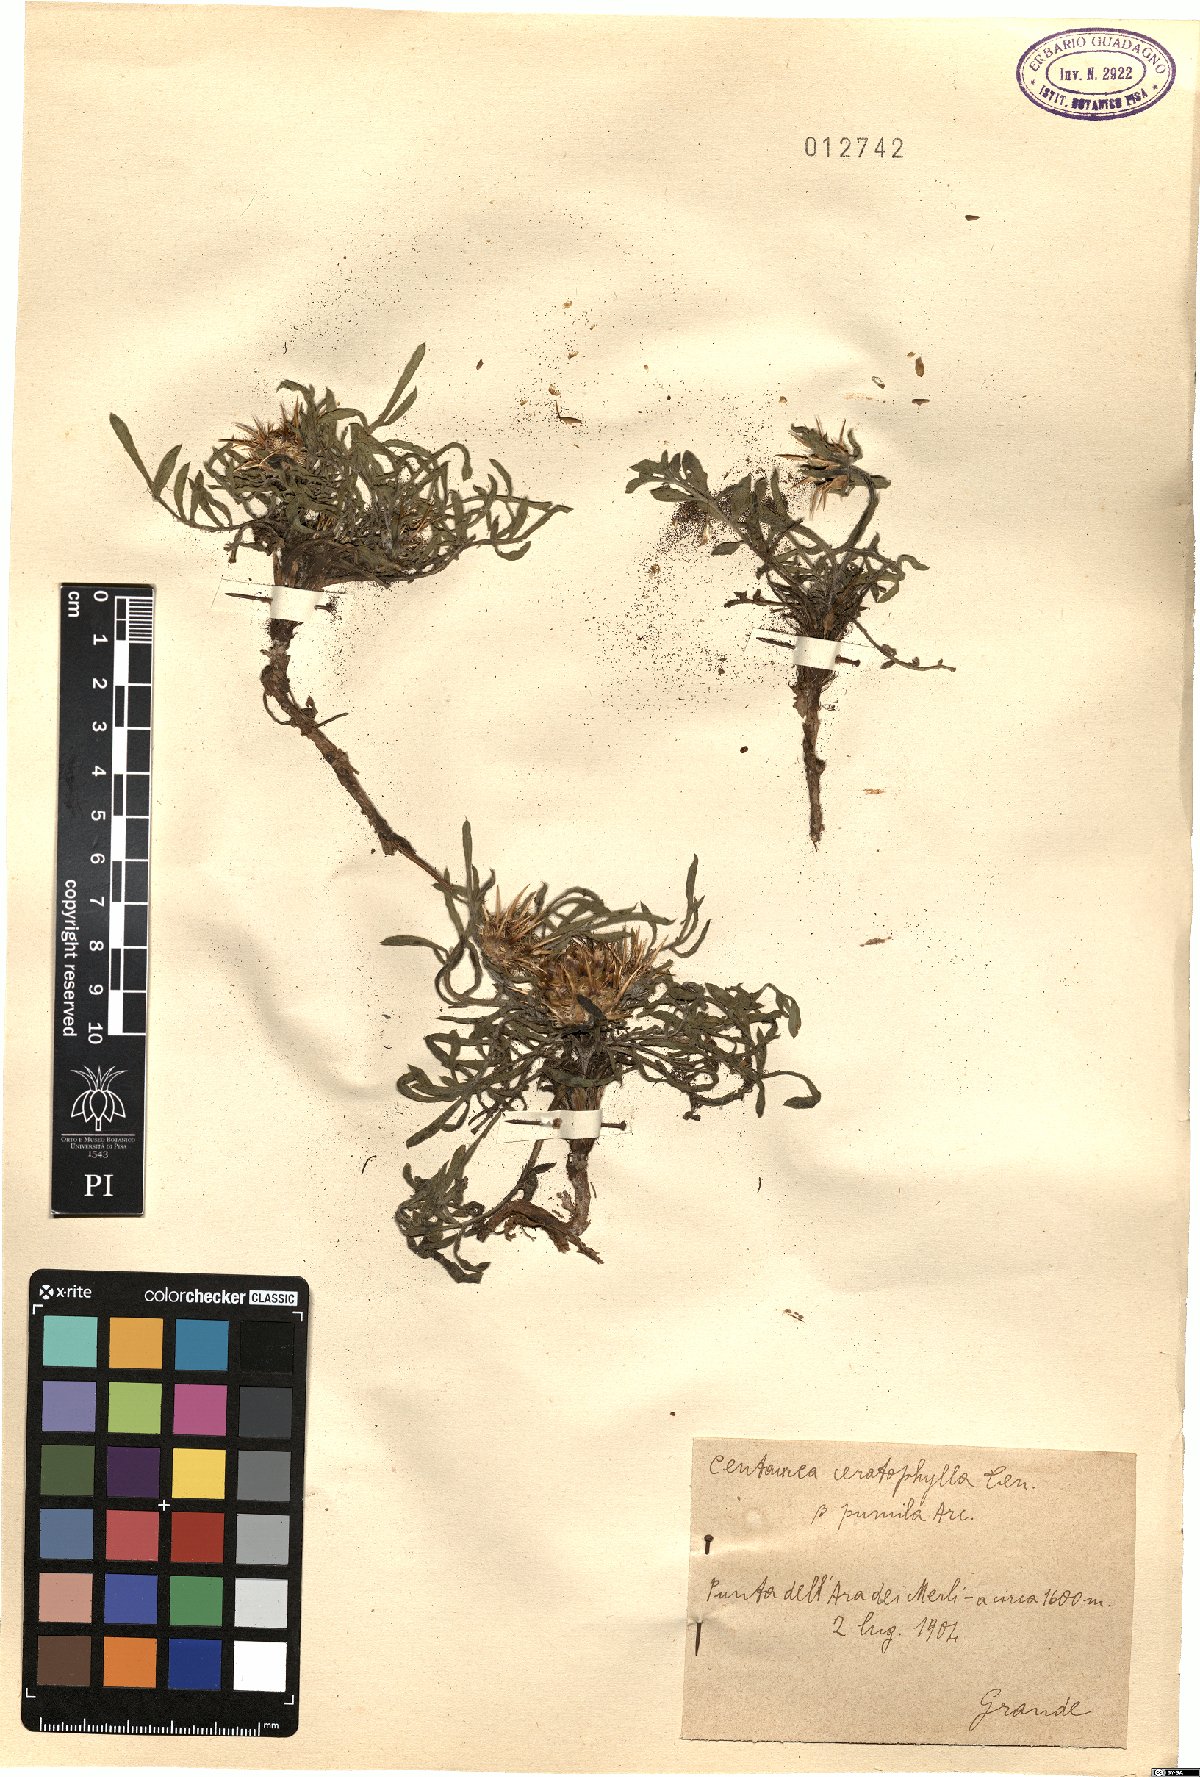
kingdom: Plantae
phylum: Tracheophyta
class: Magnoliopsida
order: Asterales
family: Asteraceae
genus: Centaurea
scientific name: Centaurea ceratophylla
